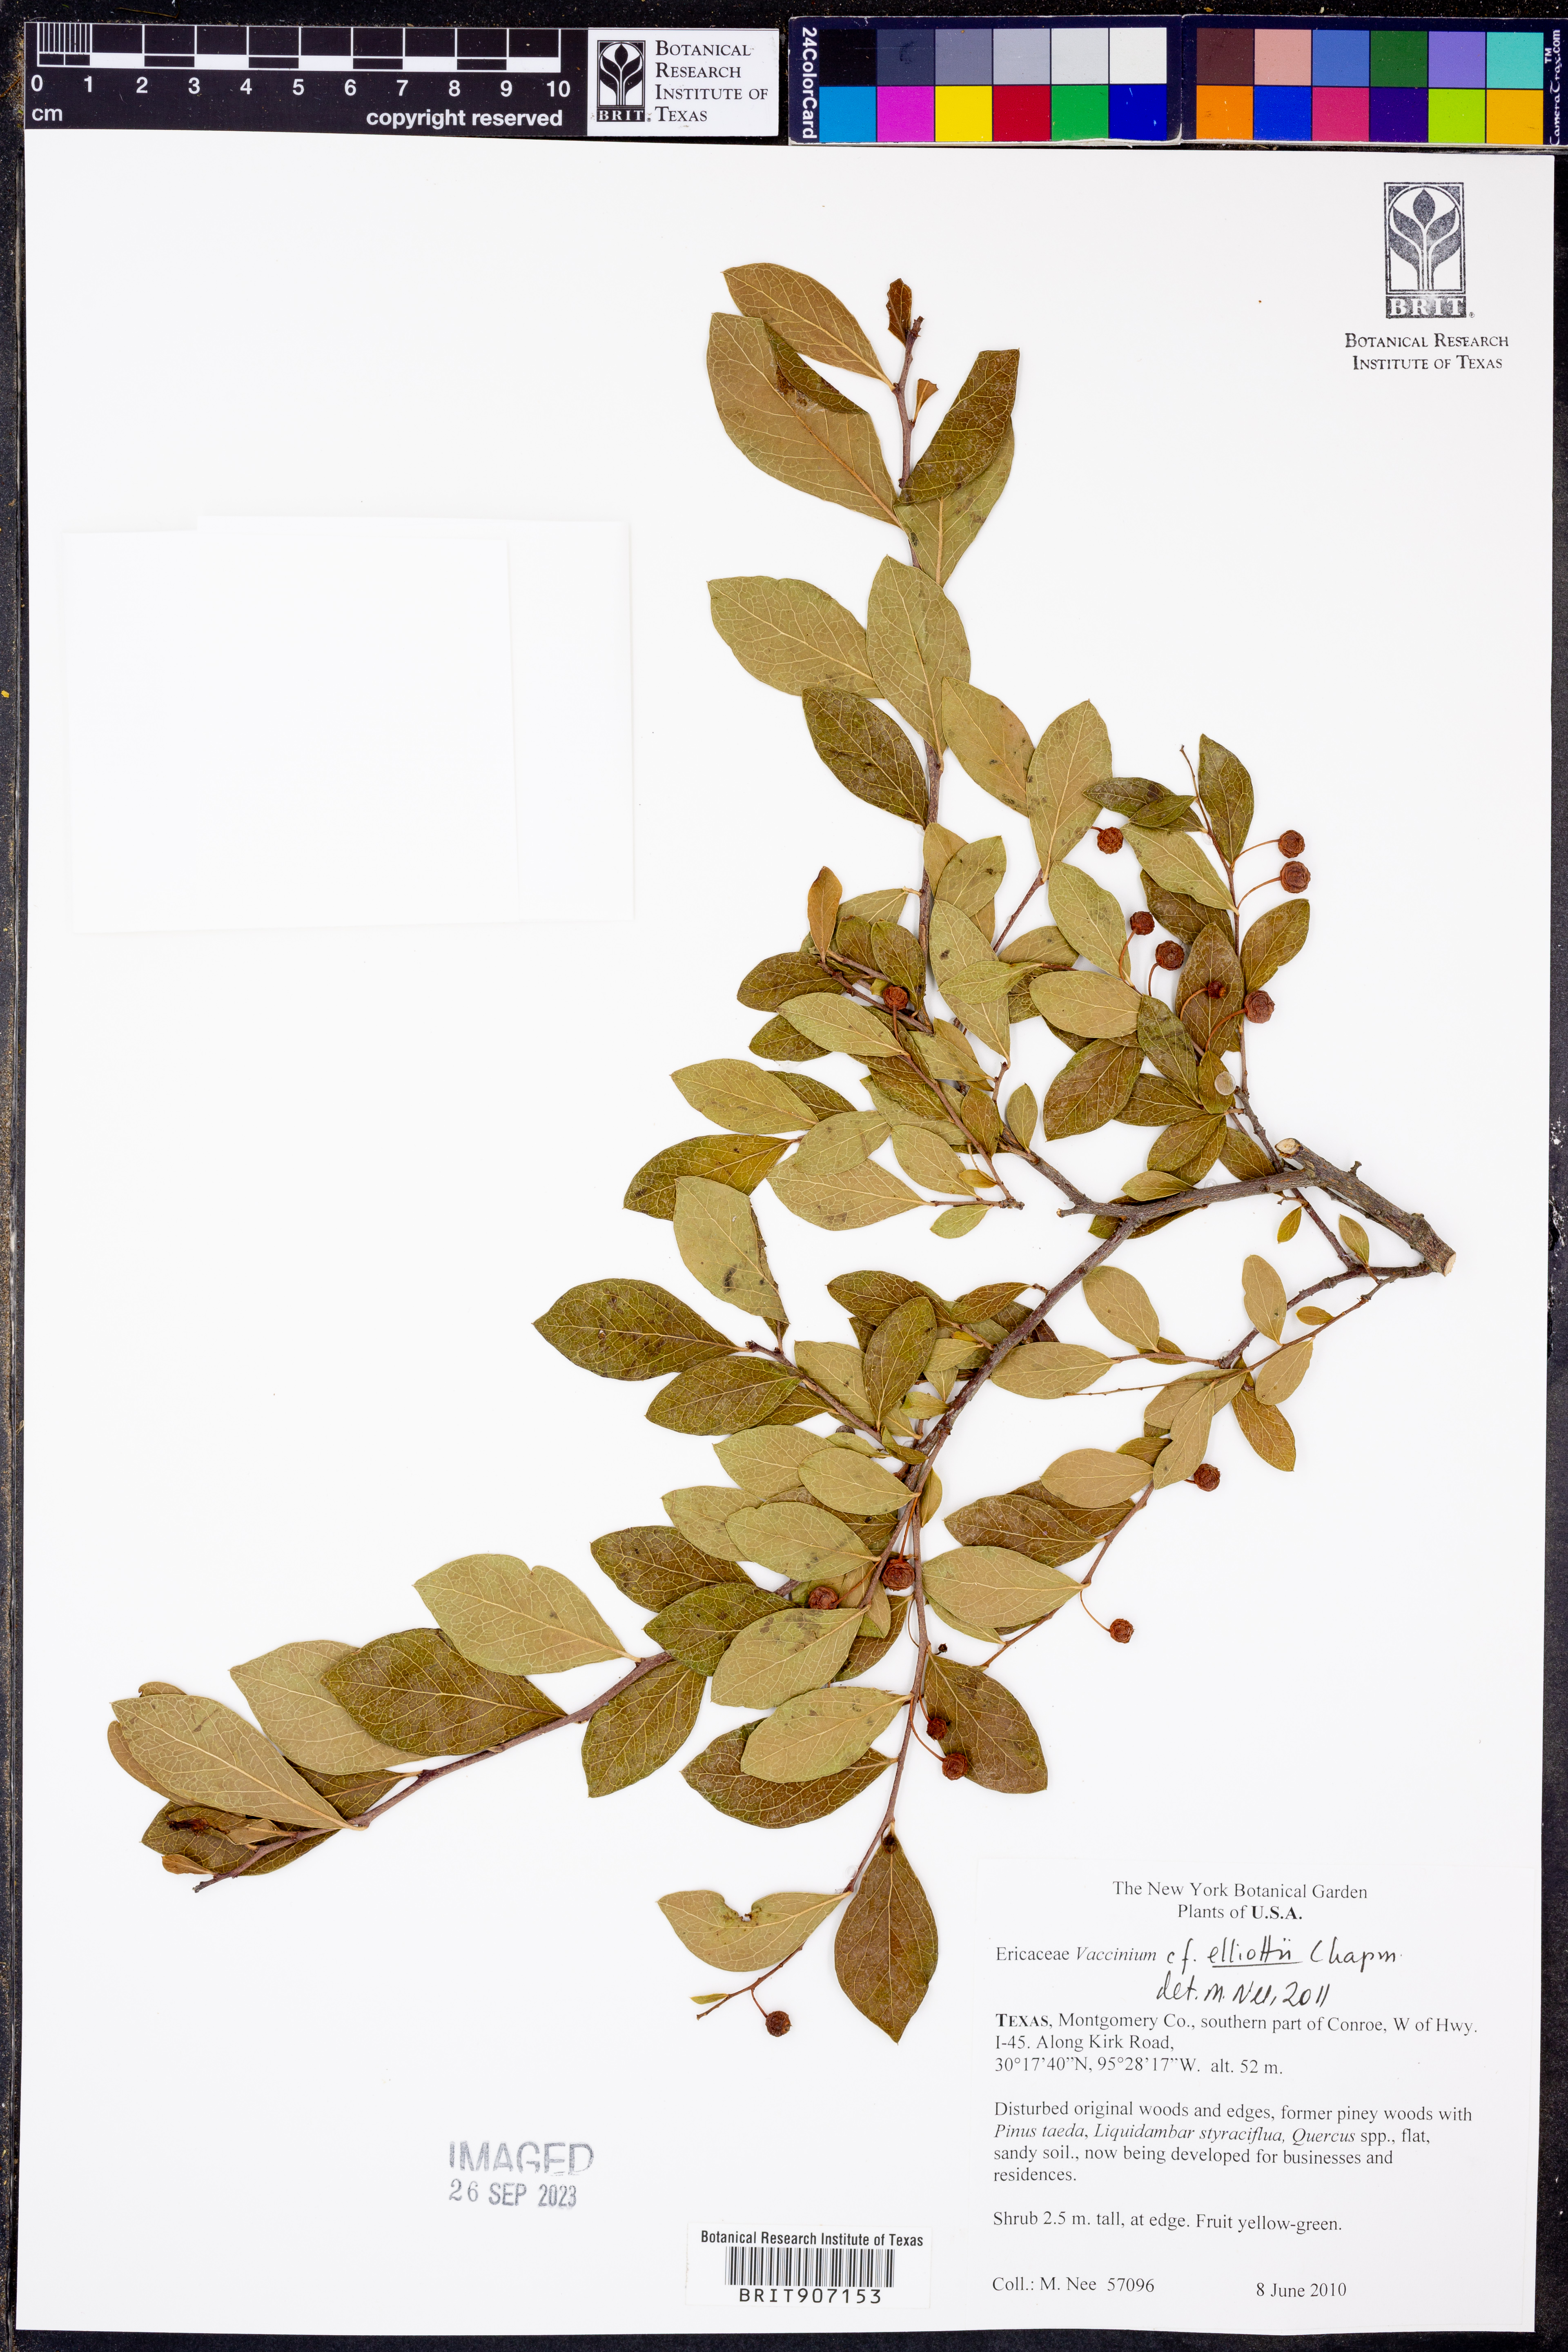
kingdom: Plantae
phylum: Tracheophyta
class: Magnoliopsida
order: Ericales
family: Ericaceae
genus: Vaccinium
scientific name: Vaccinium corymbosum
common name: Blueberry
